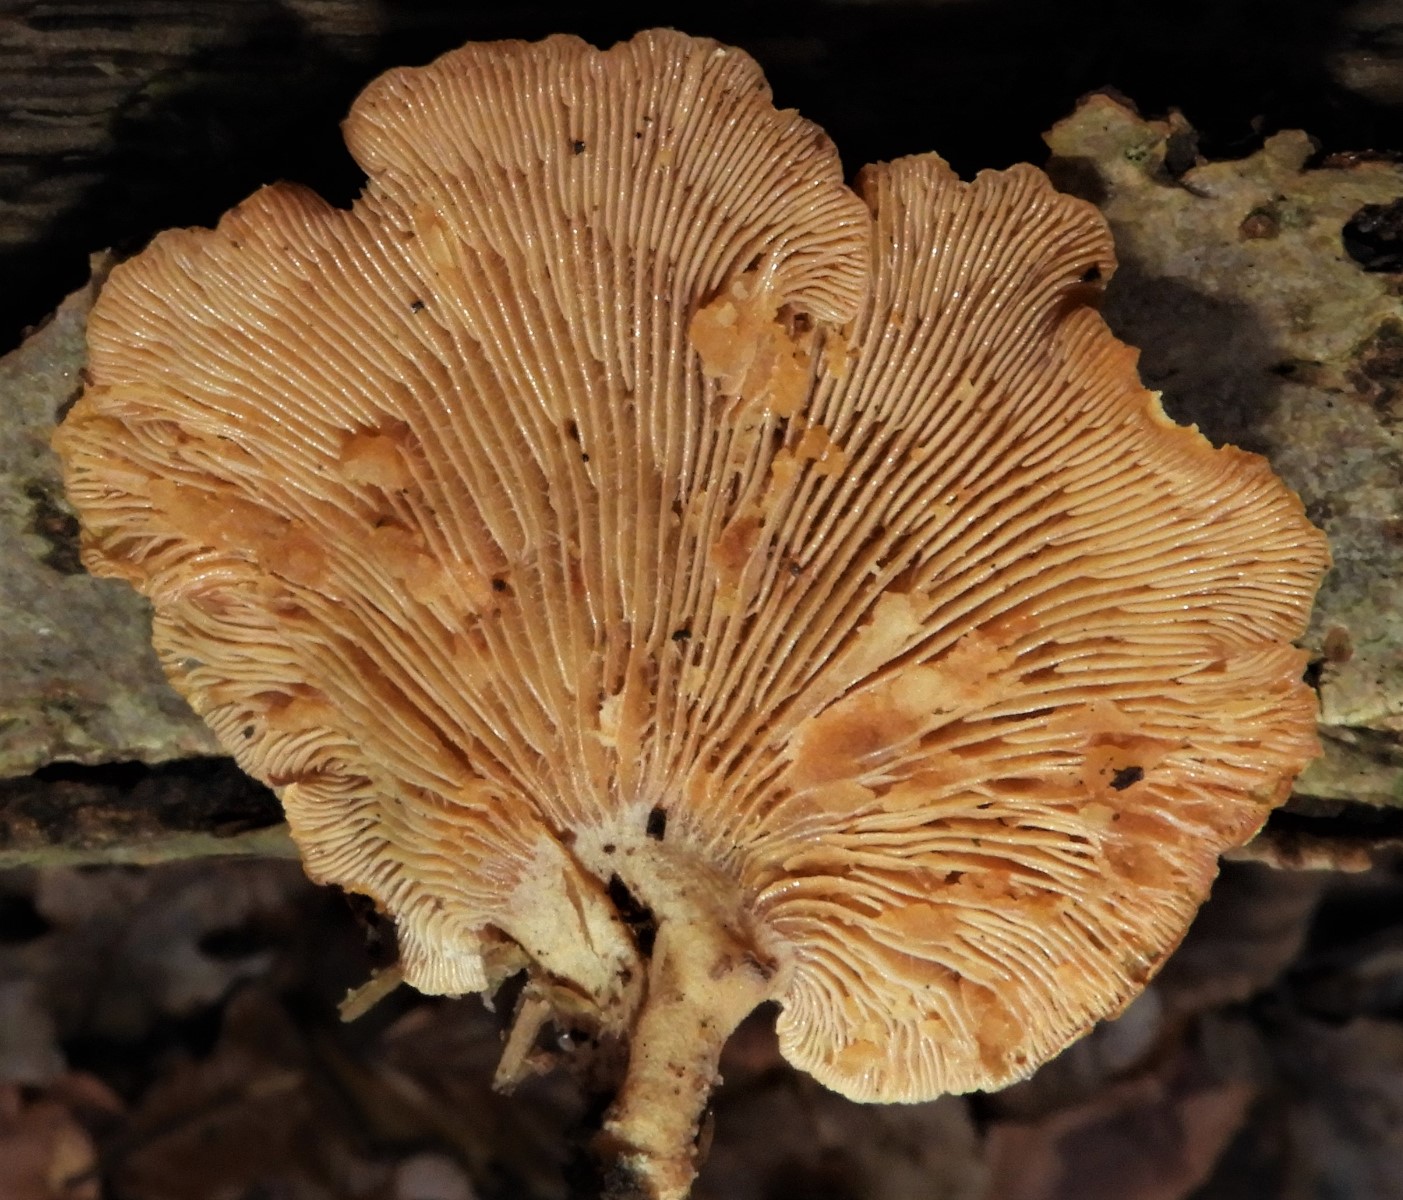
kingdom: Fungi
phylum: Basidiomycota
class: Agaricomycetes
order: Agaricales
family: Mycenaceae
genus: Panellus
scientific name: Panellus stipticus
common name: kliddet epaulethat
